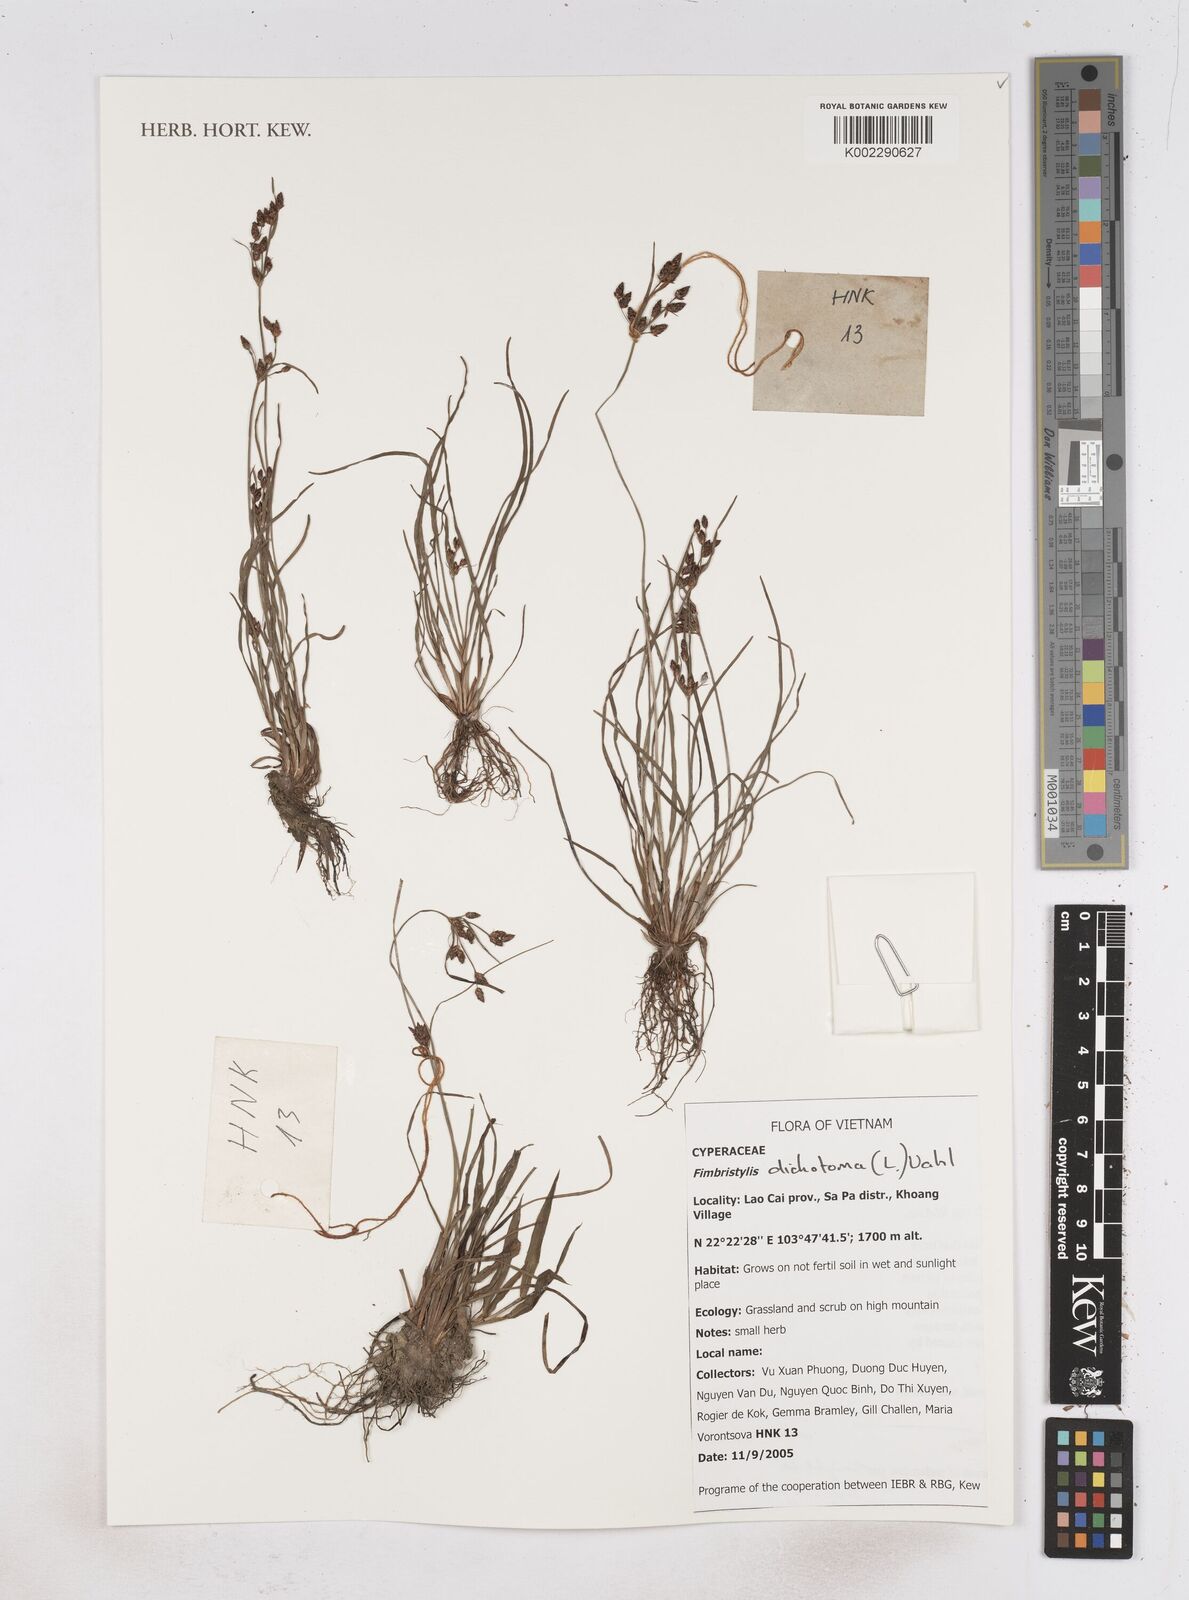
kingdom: Plantae
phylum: Tracheophyta
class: Liliopsida
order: Poales
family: Cyperaceae
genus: Fimbristylis
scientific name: Fimbristylis dichotoma
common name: Forked fimbry
